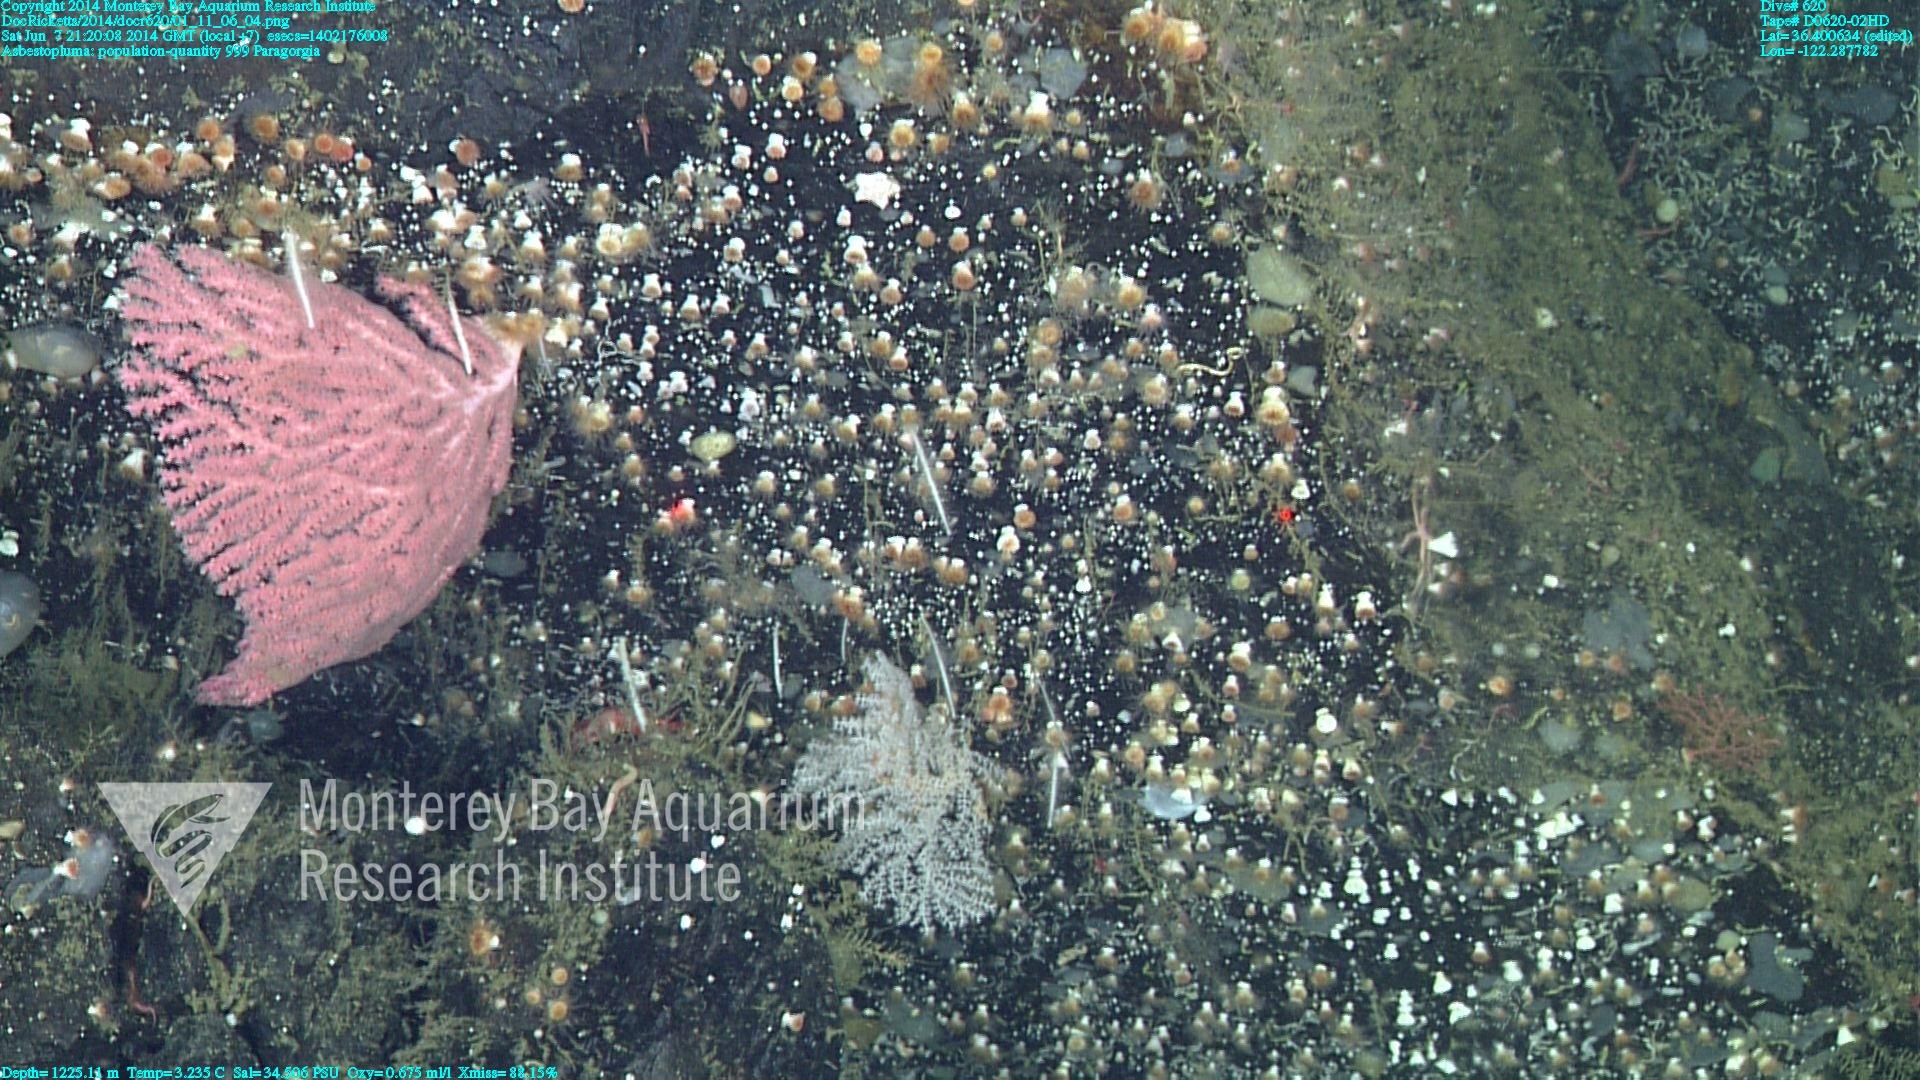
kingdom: Animalia
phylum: Cnidaria
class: Anthozoa
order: Scleralcyonacea
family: Coralliidae
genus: Paragorgia
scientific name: Paragorgia
